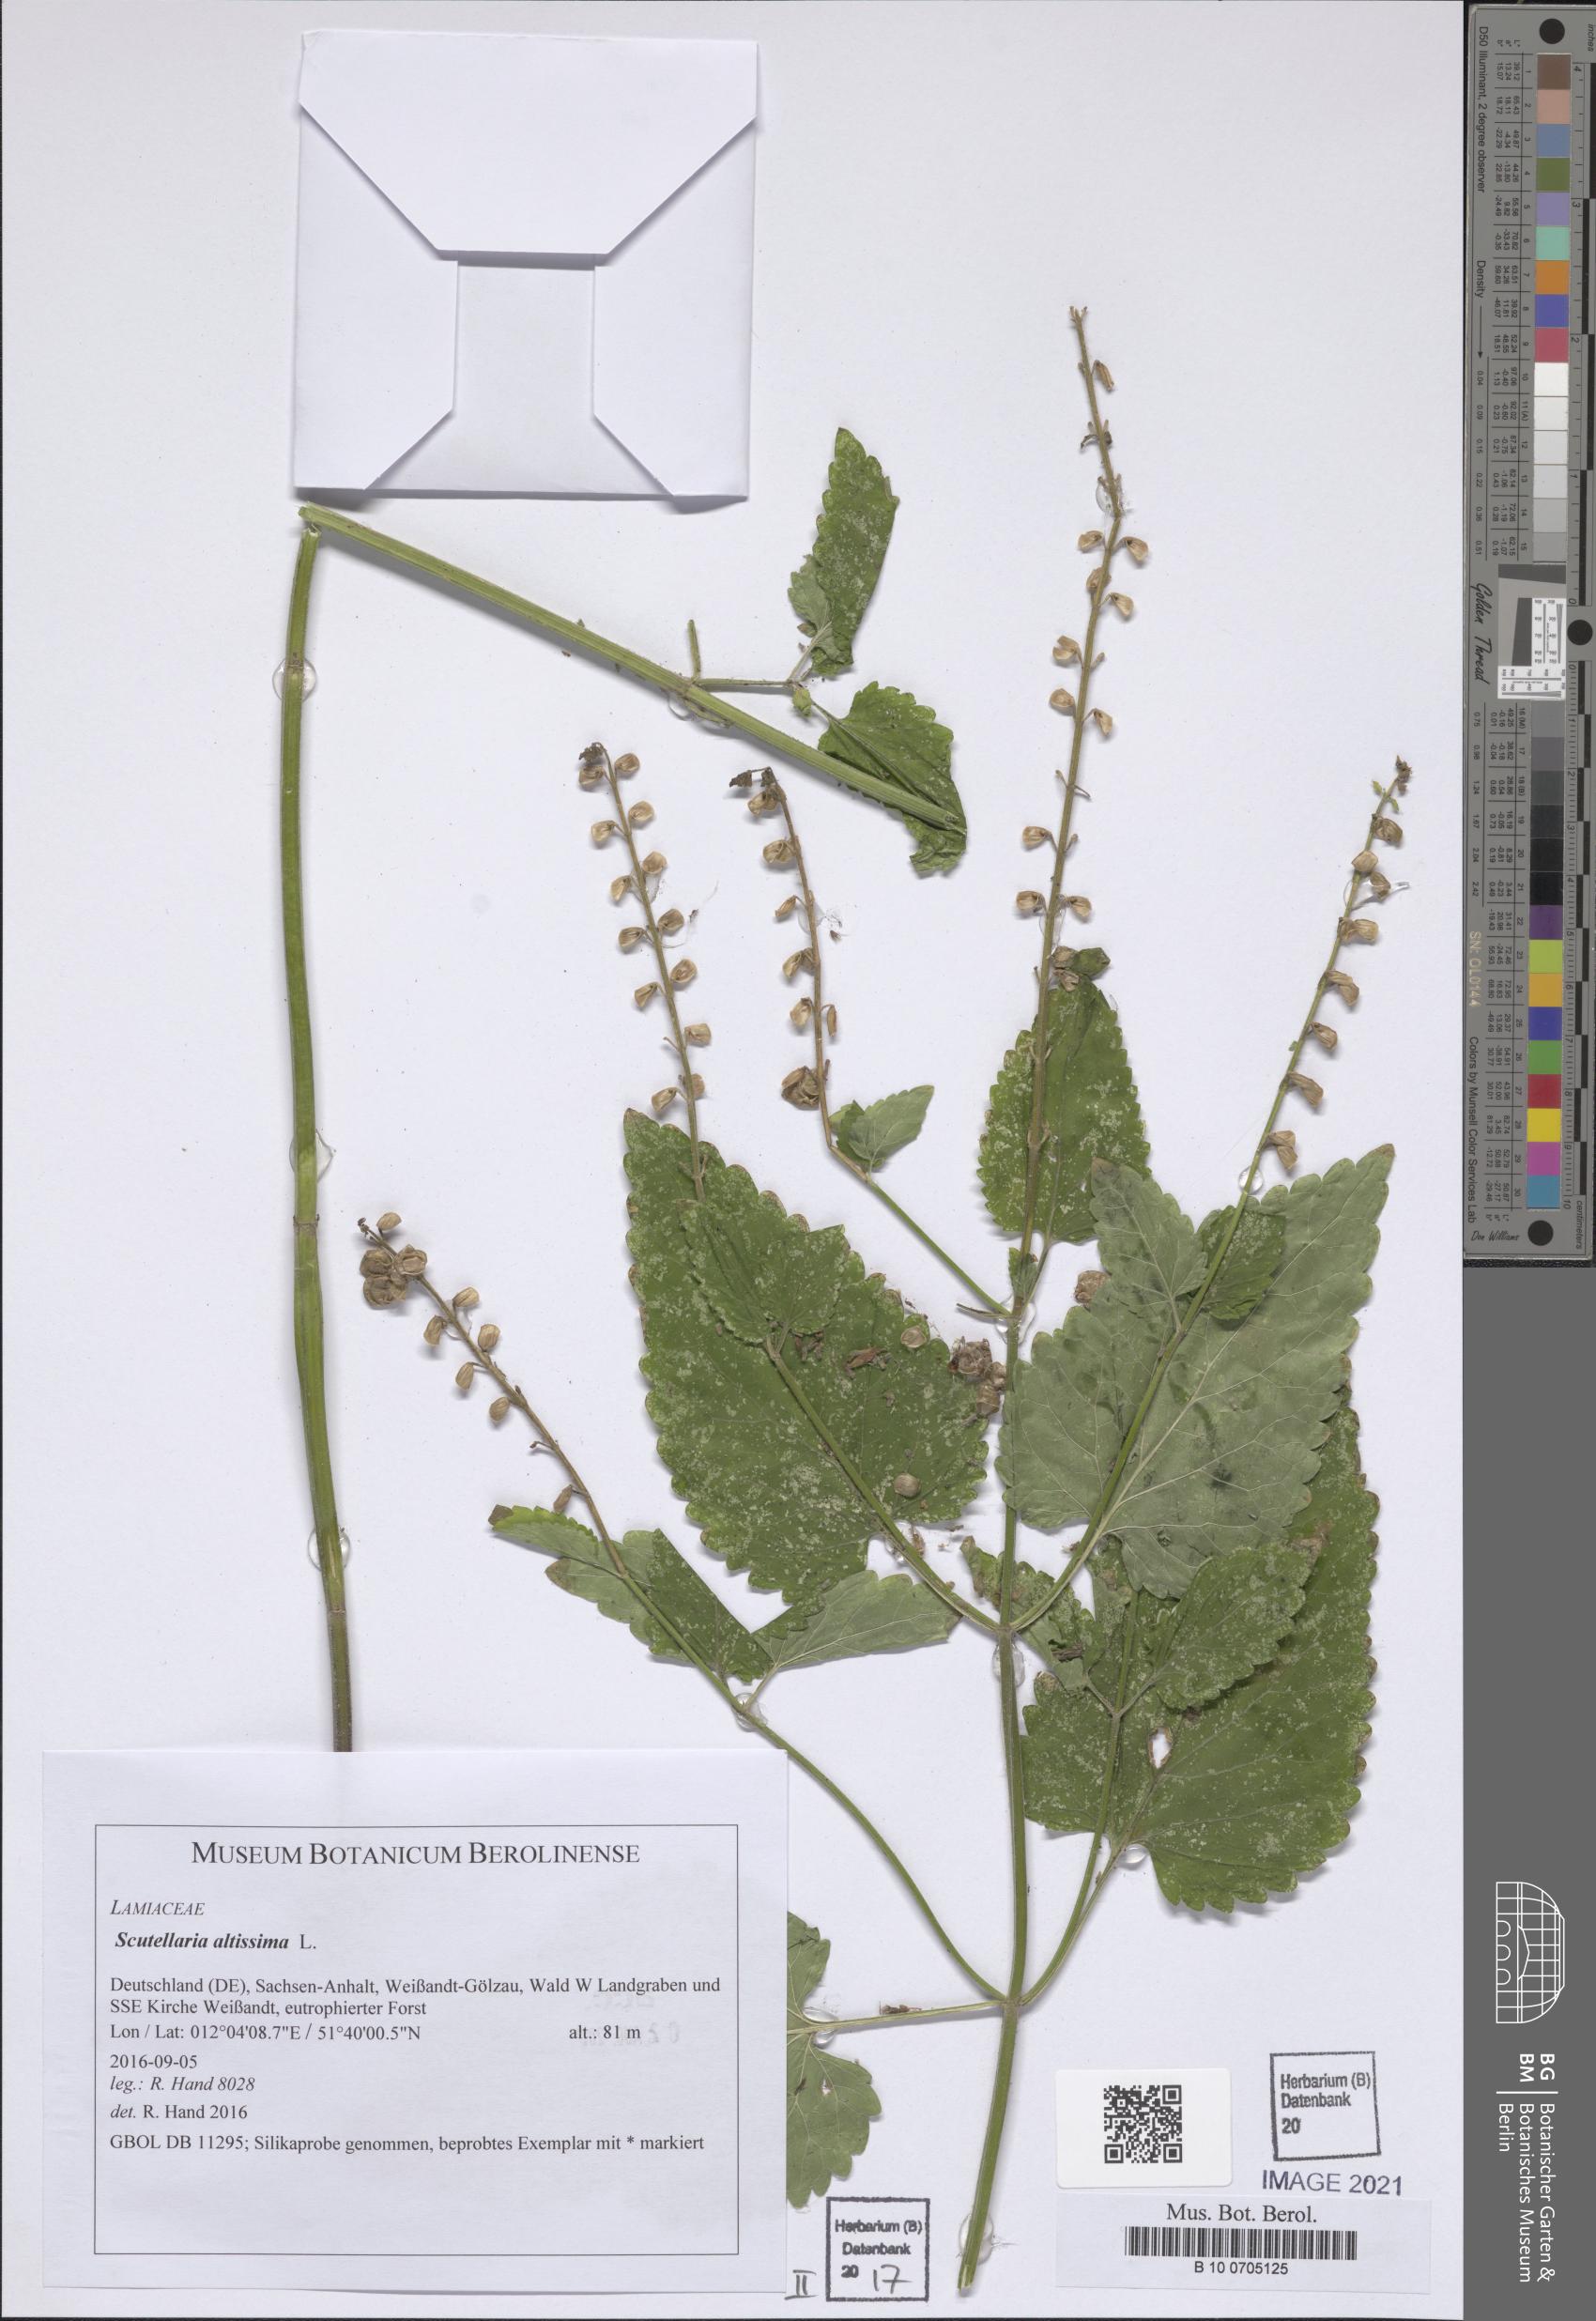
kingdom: Plantae
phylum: Tracheophyta
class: Magnoliopsida
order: Lamiales
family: Lamiaceae
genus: Scutellaria
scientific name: Scutellaria altissima
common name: Somerset skullcap
